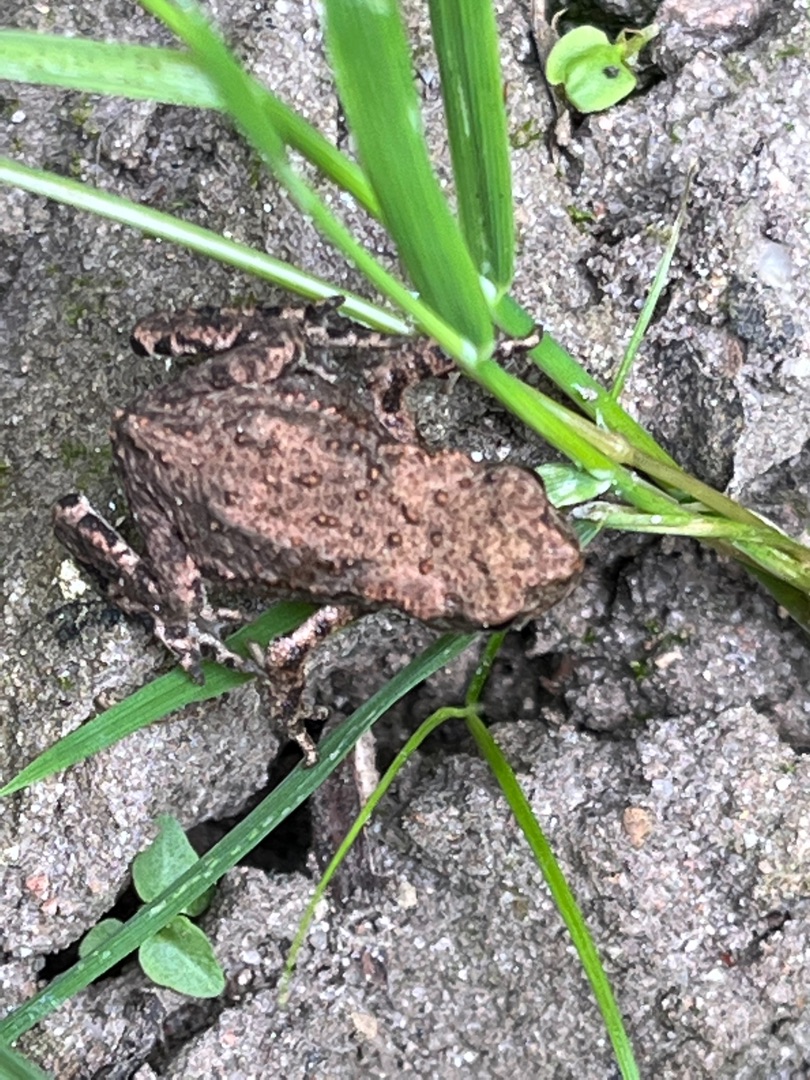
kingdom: Animalia
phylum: Chordata
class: Amphibia
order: Anura
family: Bufonidae
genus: Bufo
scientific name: Bufo bufo
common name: Skrubtudse
